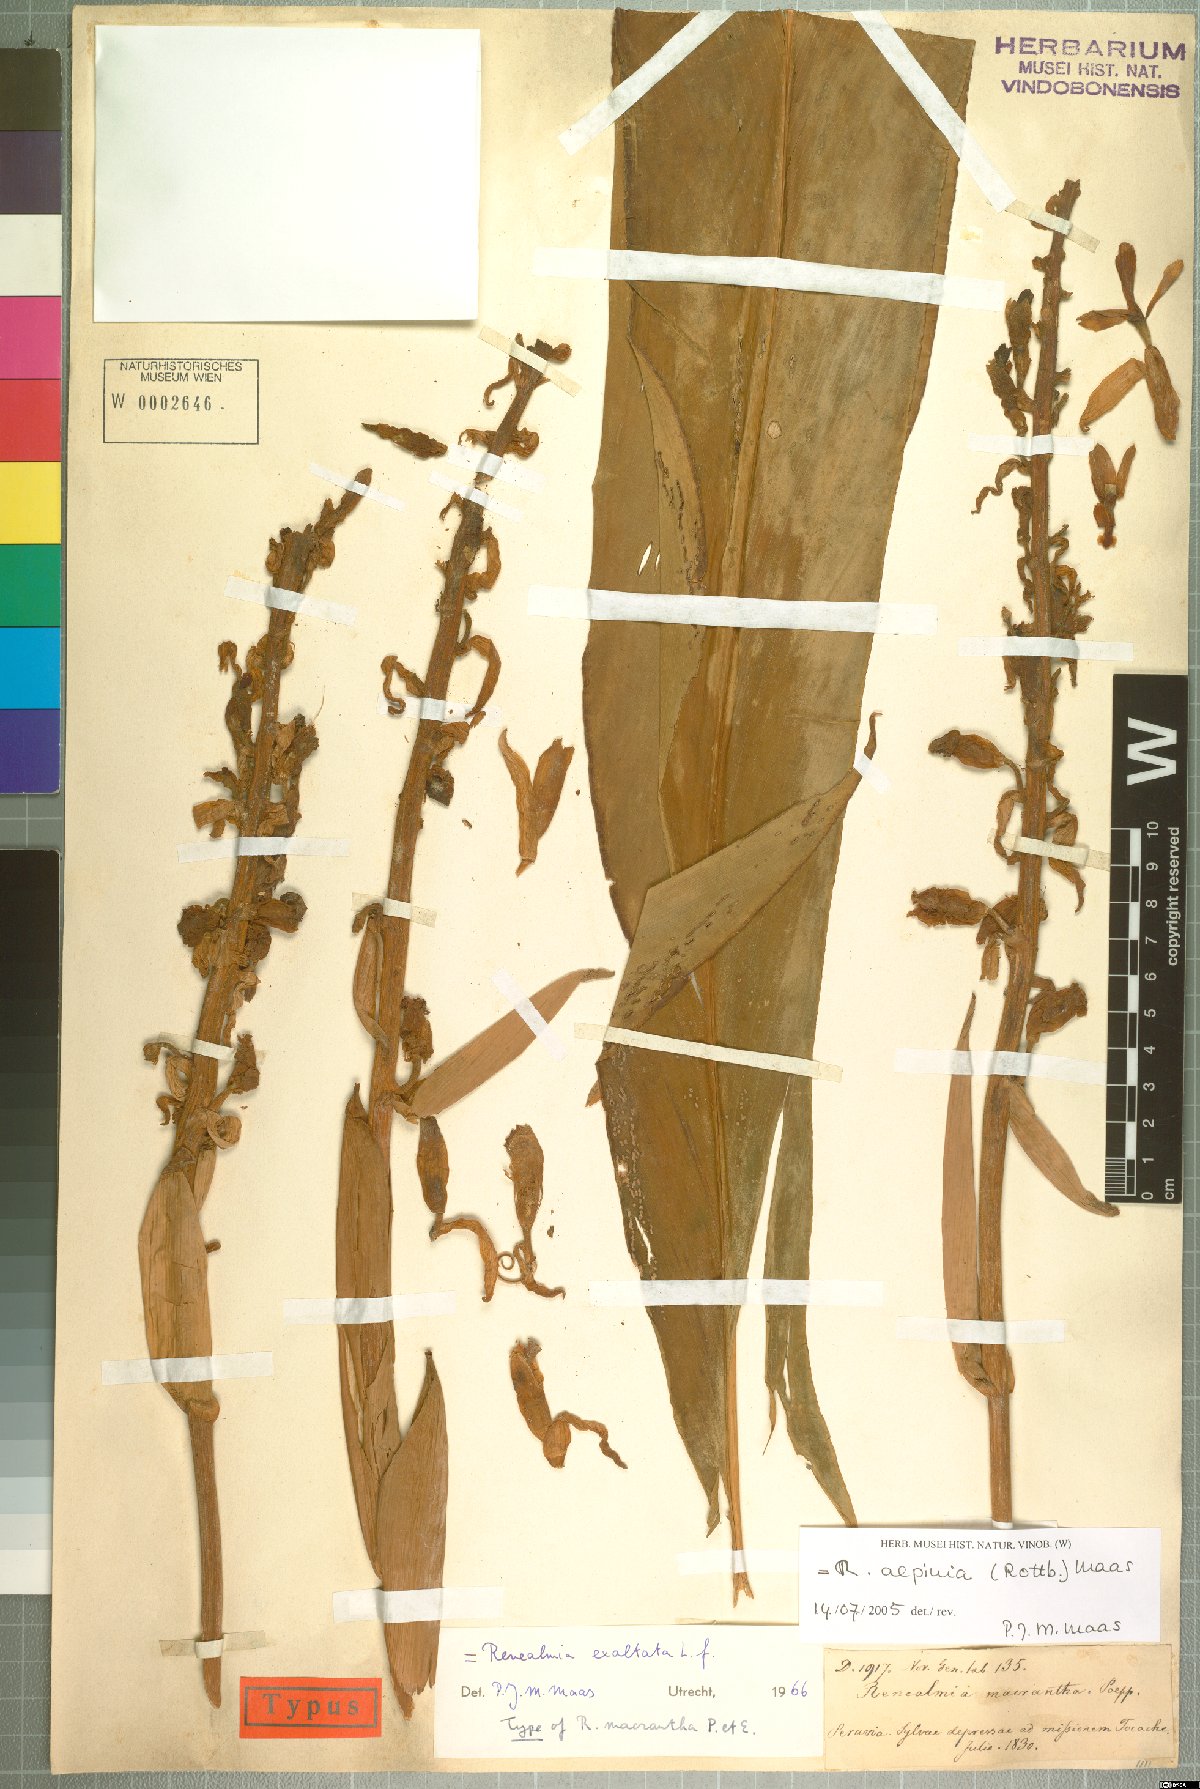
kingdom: Plantae
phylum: Tracheophyta
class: Liliopsida
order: Zingiberales
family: Zingiberaceae
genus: Renealmia
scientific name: Renealmia alpinia
